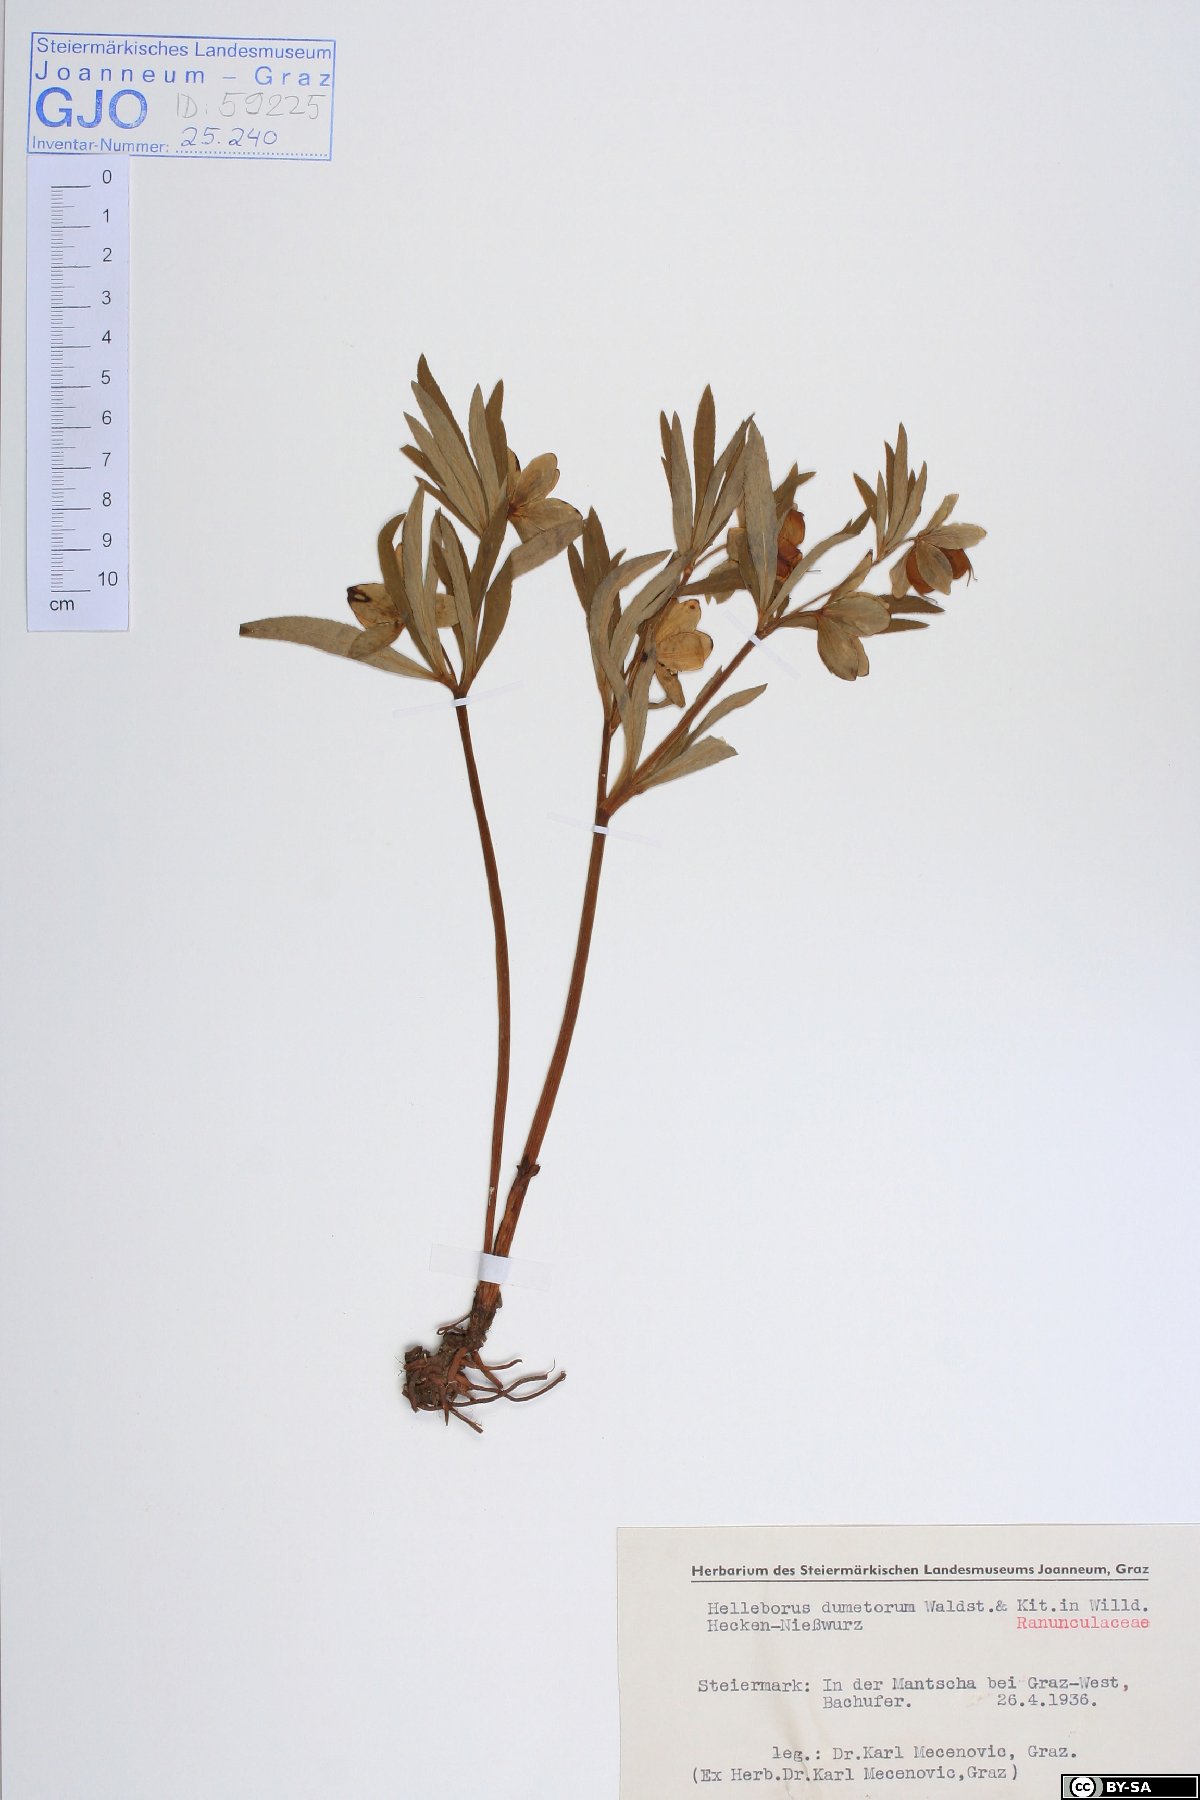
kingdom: Plantae
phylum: Tracheophyta
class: Magnoliopsida
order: Ranunculales
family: Ranunculaceae
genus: Helleborus
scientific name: Helleborus dumetorum
